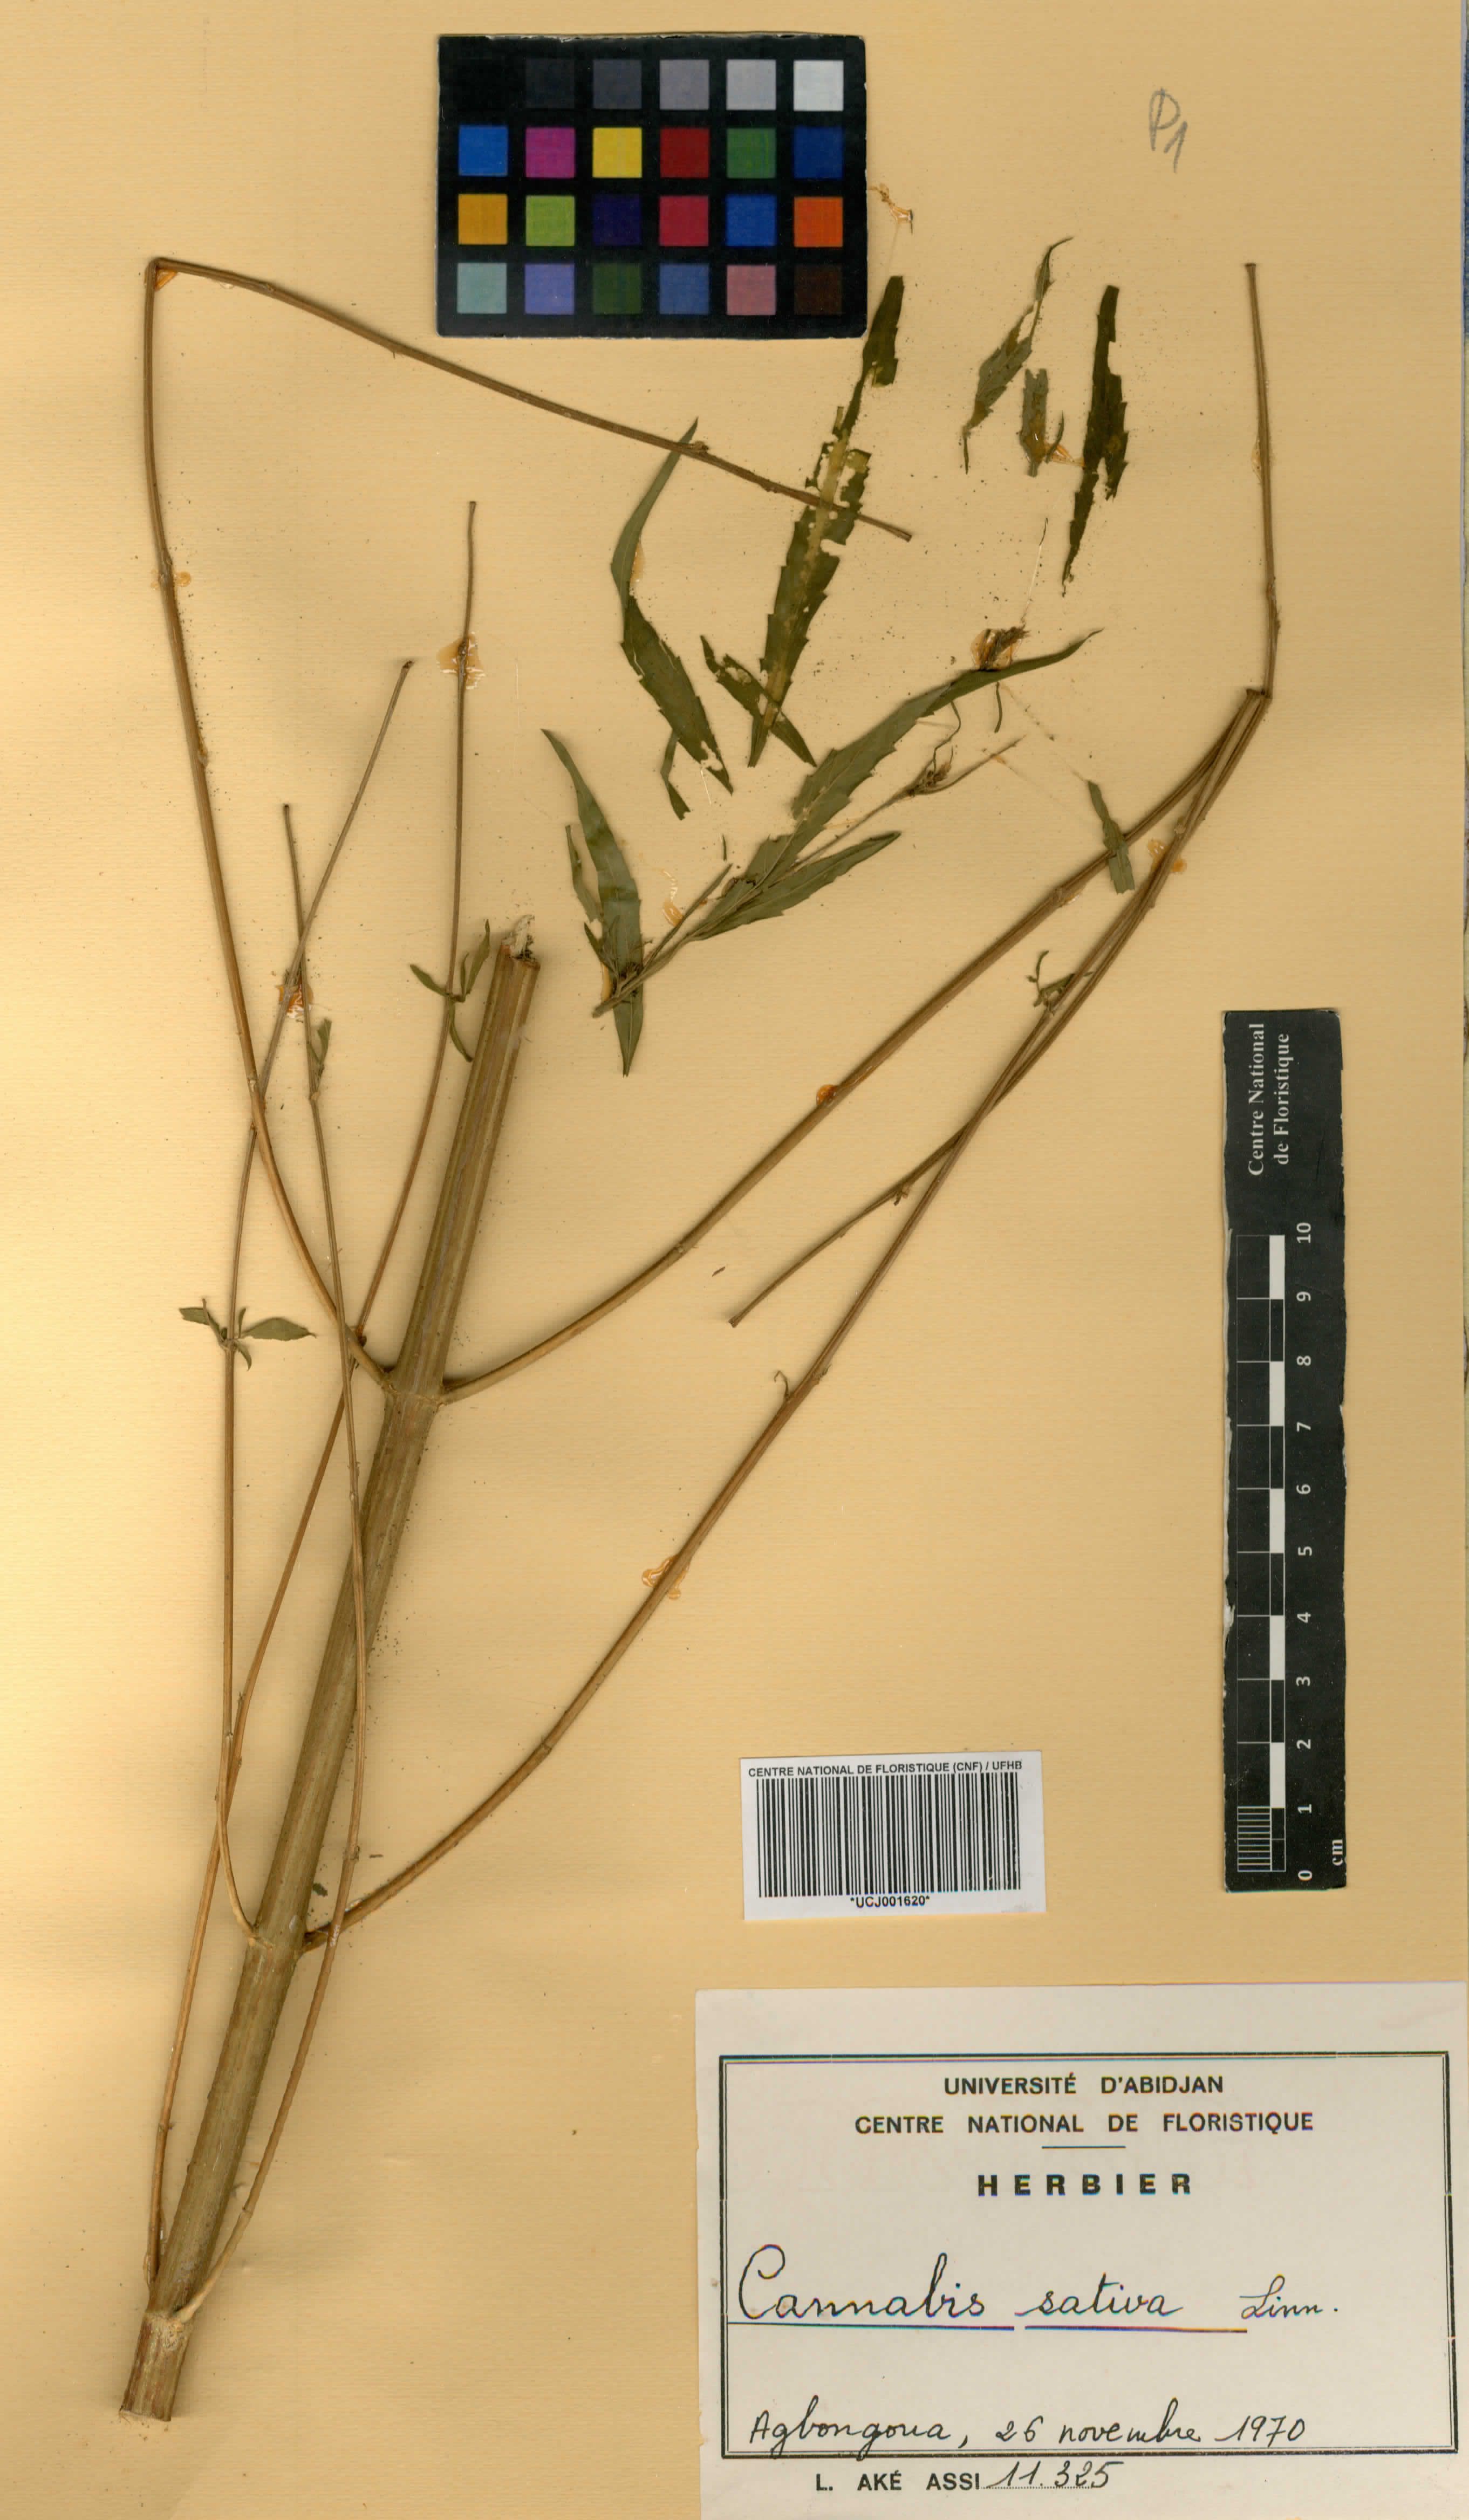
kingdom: Plantae
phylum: Tracheophyta
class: Magnoliopsida
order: Rosales
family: Cannabaceae
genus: Cannabis
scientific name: Cannabis sativa
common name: Hemp
